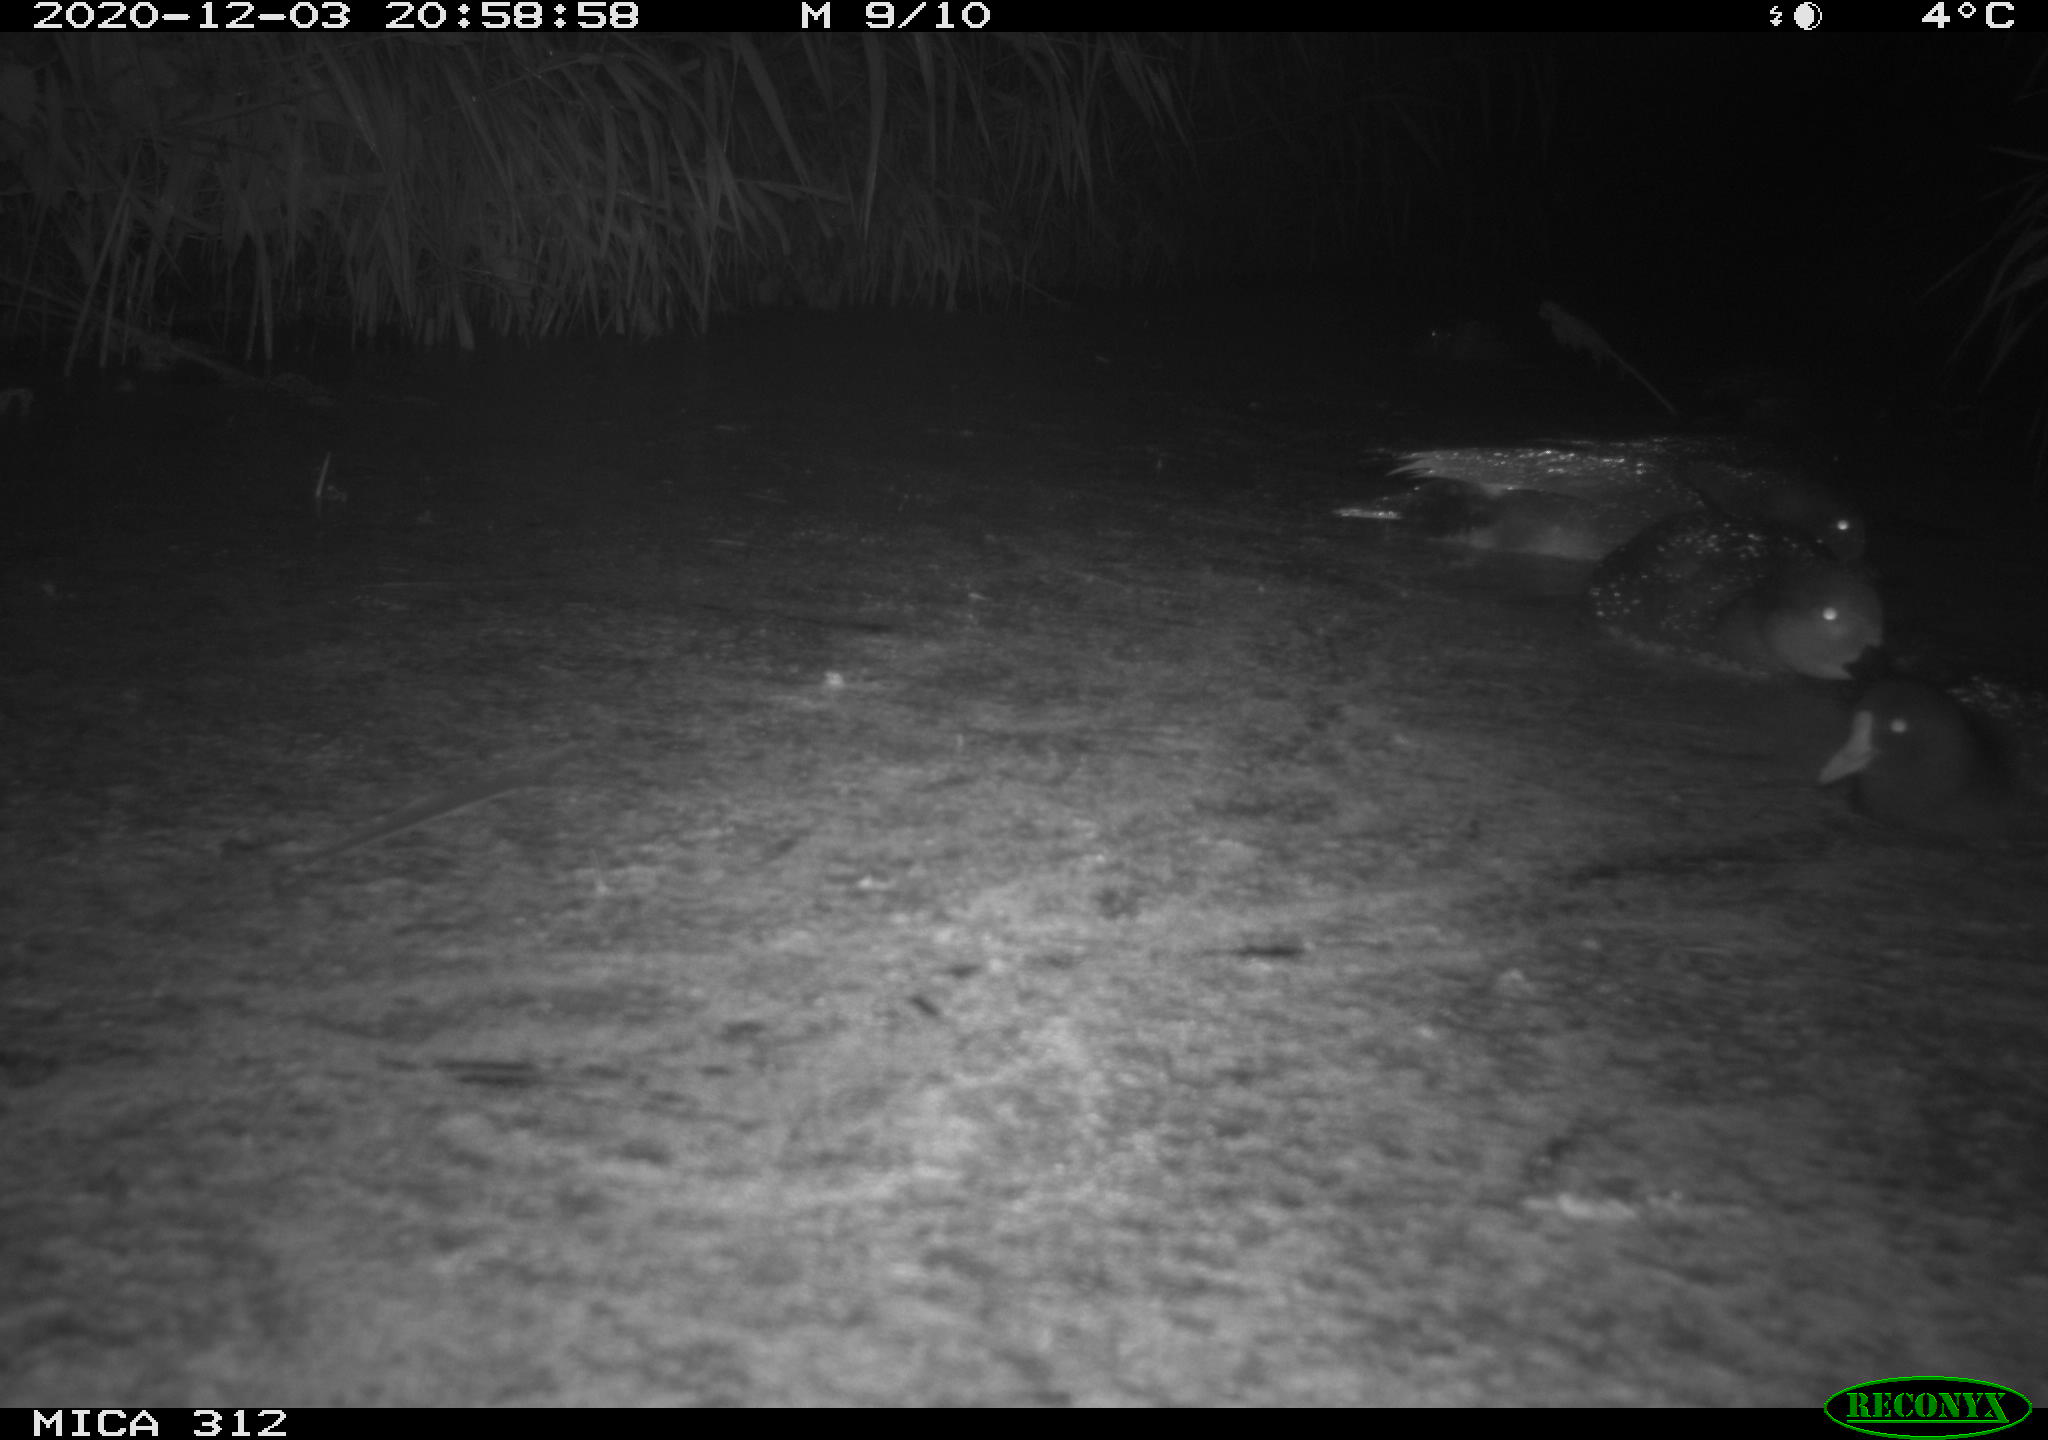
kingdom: Animalia
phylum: Chordata
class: Aves
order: Anseriformes
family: Anatidae
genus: Anas
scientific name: Anas
